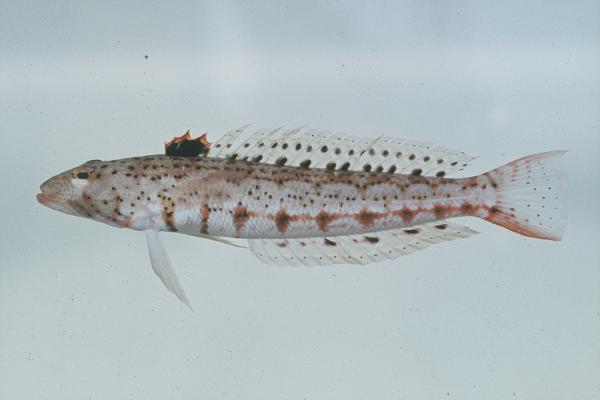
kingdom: Animalia
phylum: Chordata
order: Perciformes
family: Pinguipedidae
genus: Parapercis
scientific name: Parapercis punctulata
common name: Spotted sandperch
